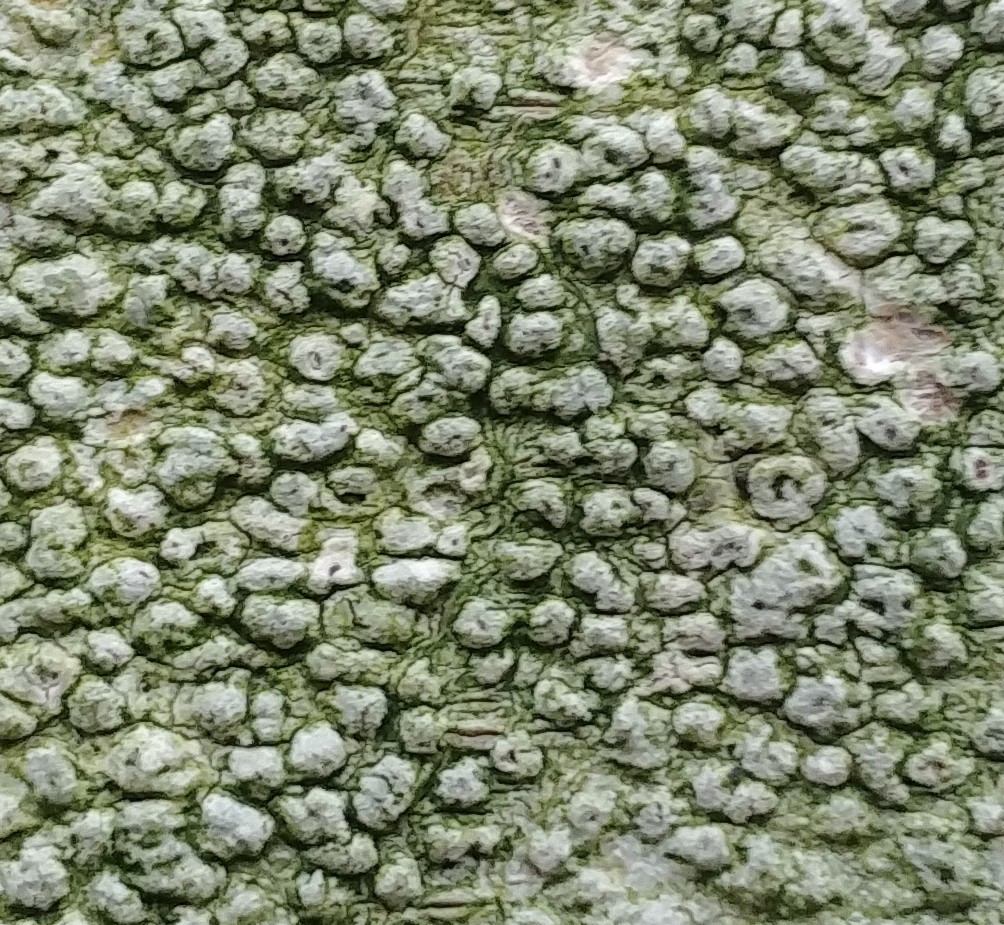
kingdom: Fungi
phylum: Ascomycota
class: Lecanoromycetes
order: Pertusariales
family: Pertusariaceae
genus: Pertusaria
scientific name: Pertusaria hymenea
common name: åben prikvortelav
